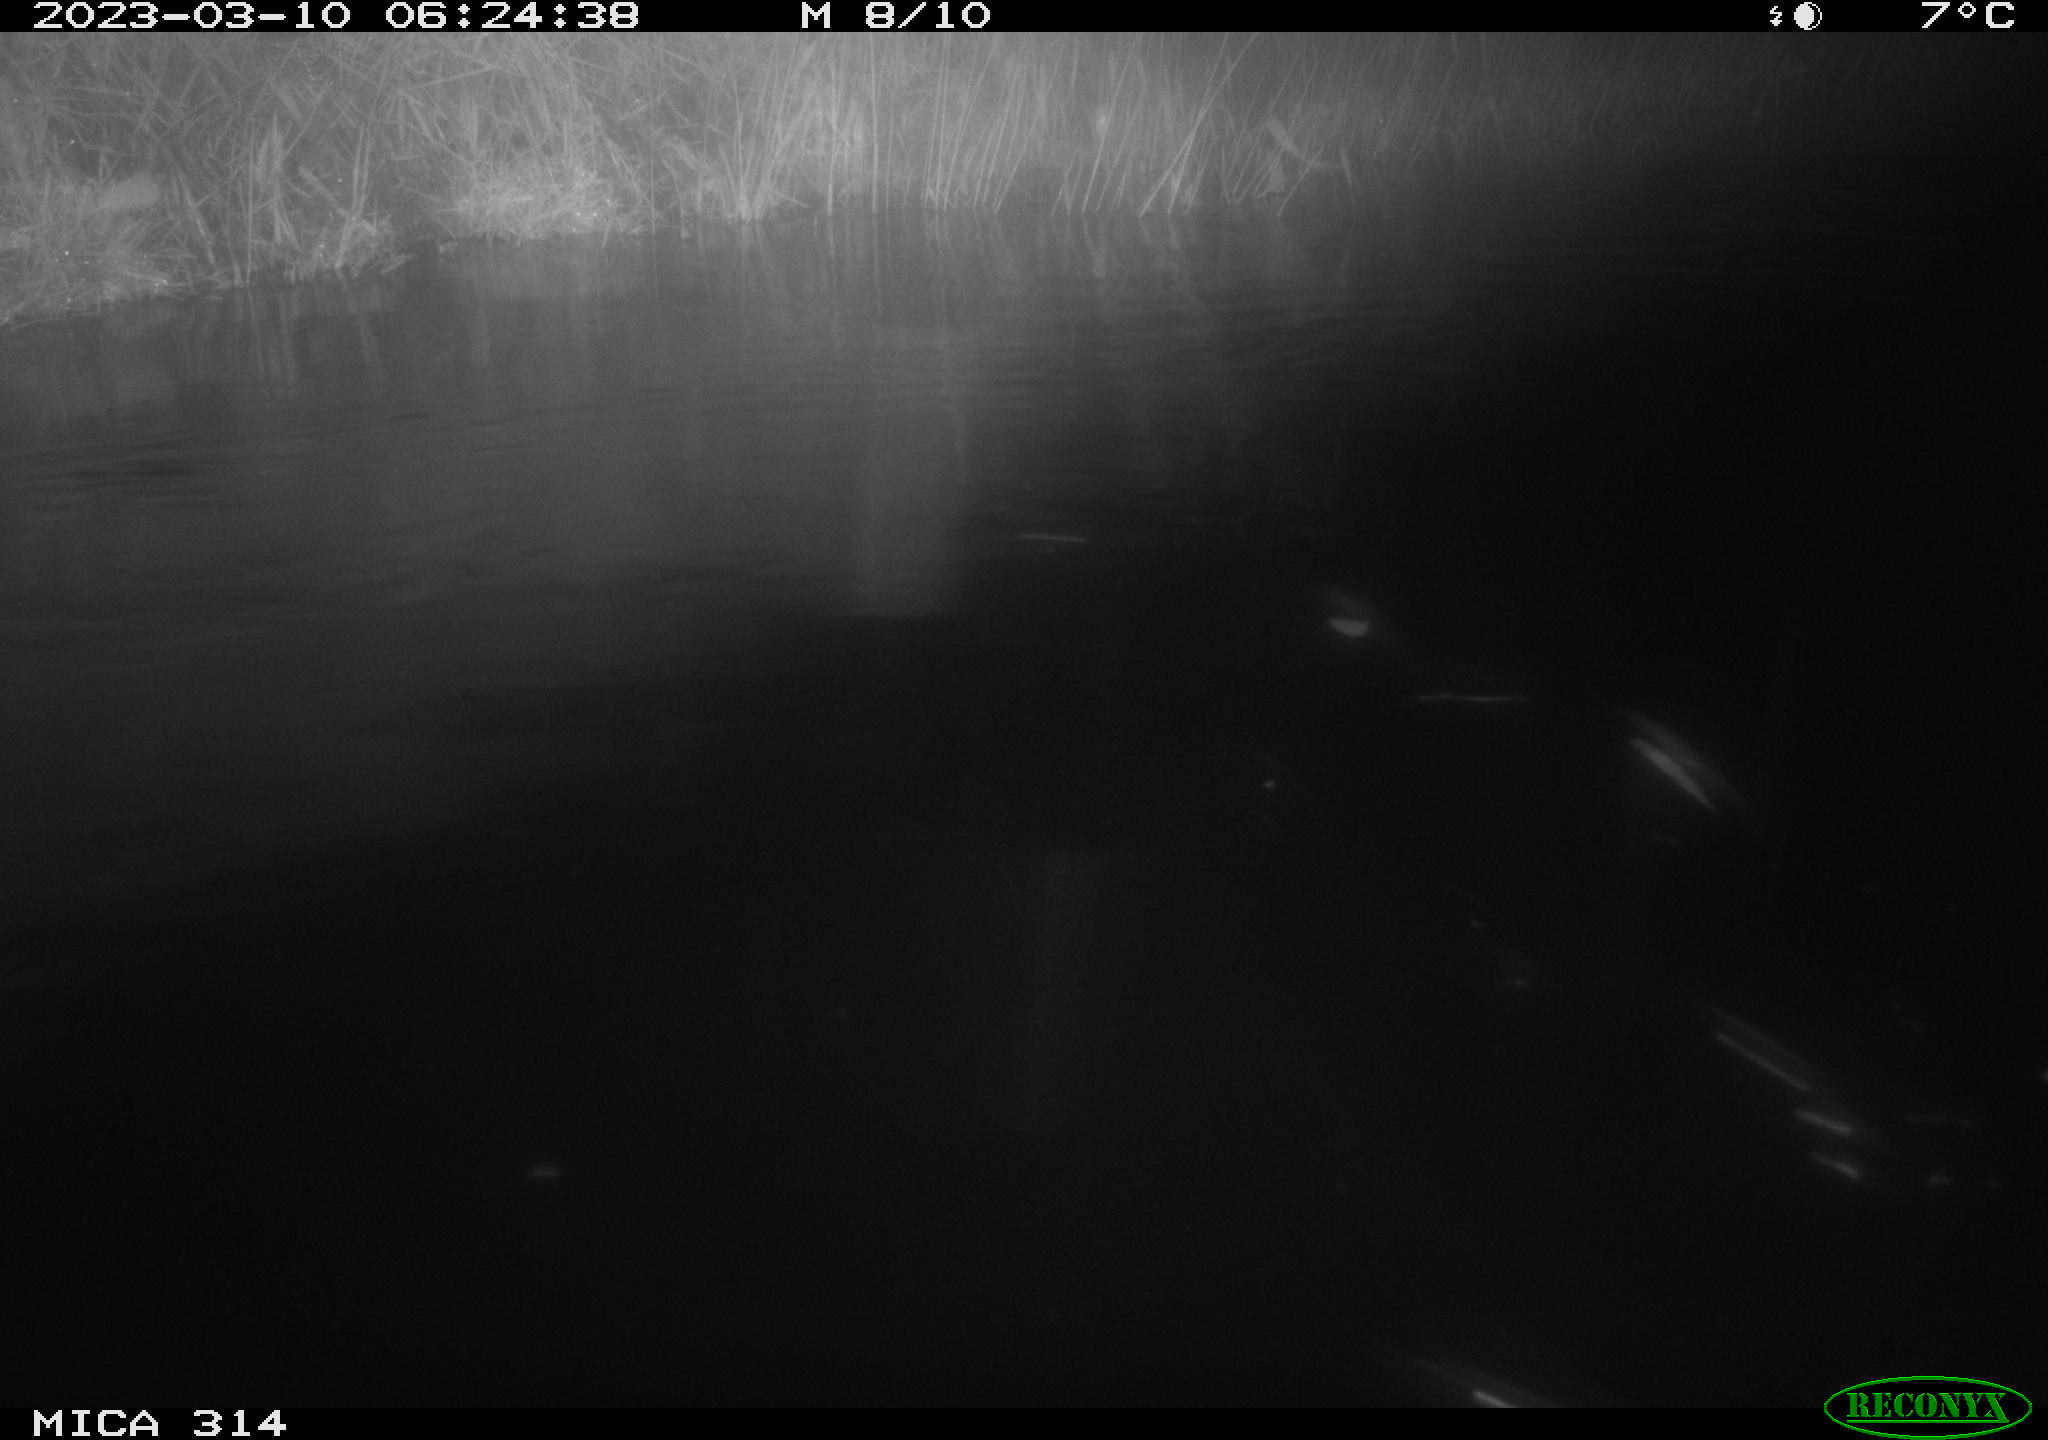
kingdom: Animalia
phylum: Chordata
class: Mammalia
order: Rodentia
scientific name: Rodentia
